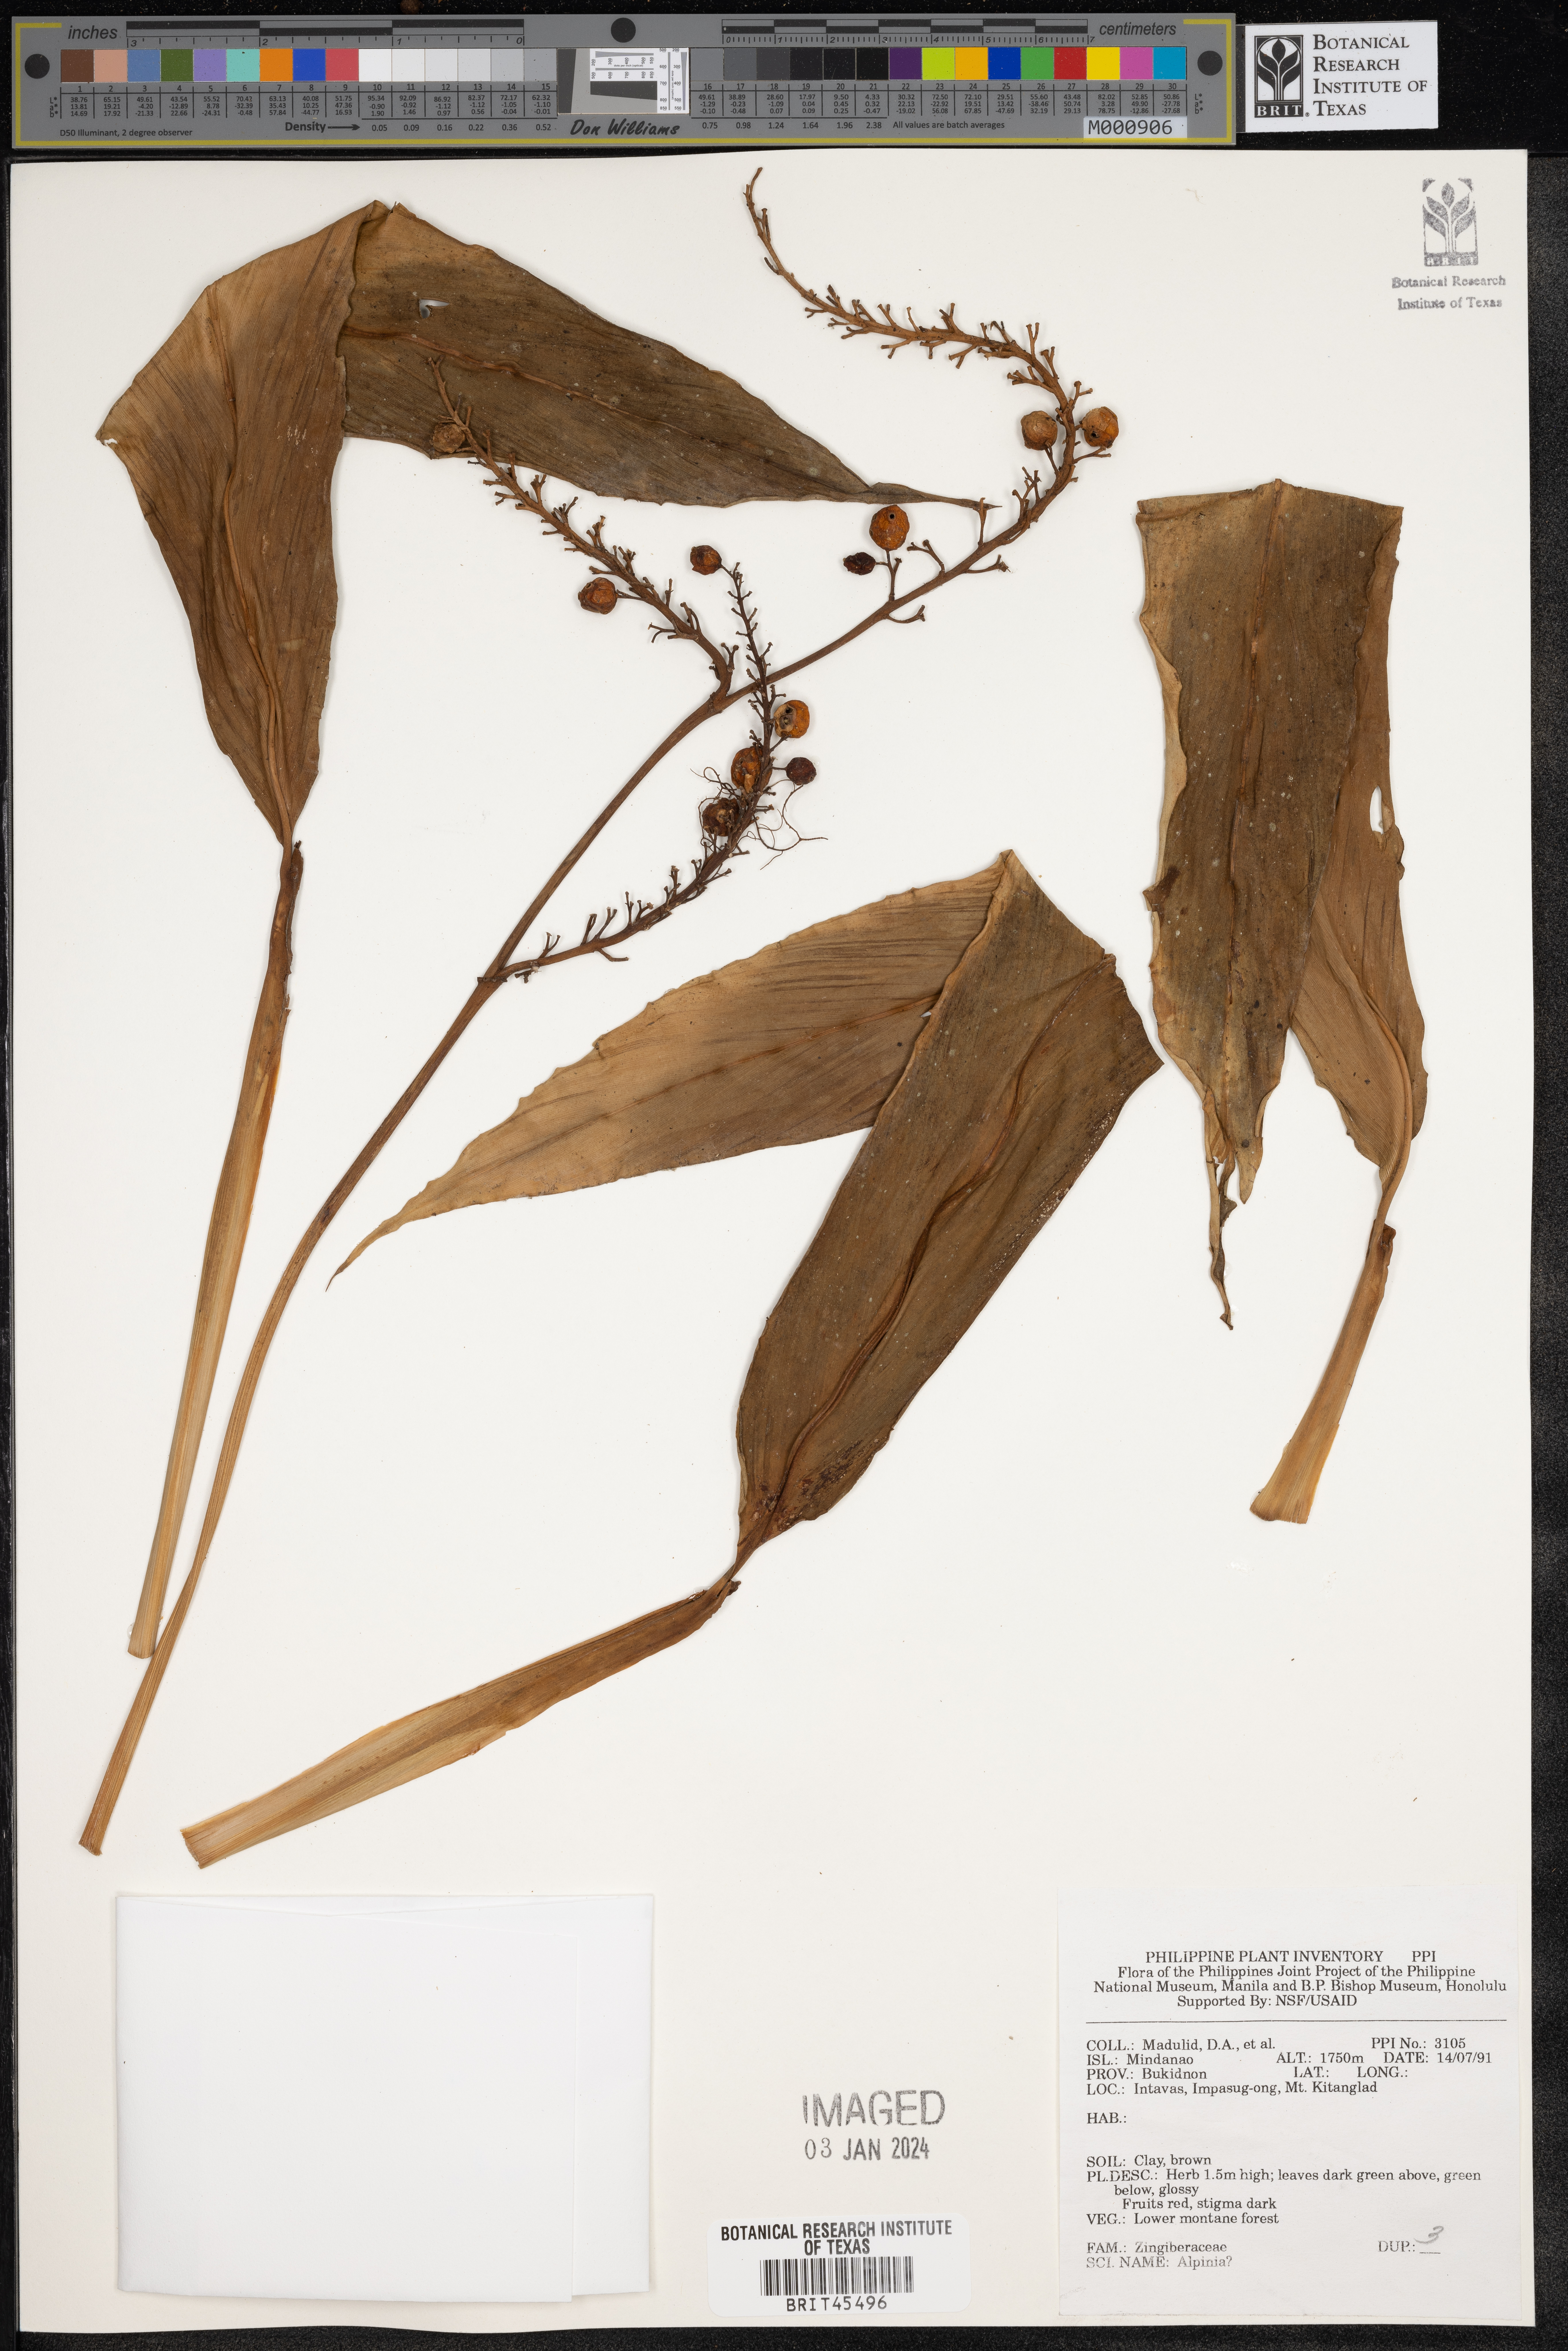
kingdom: Plantae
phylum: Tracheophyta
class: Liliopsida
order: Zingiberales
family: Zingiberaceae
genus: Alpinia
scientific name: Alpinia
